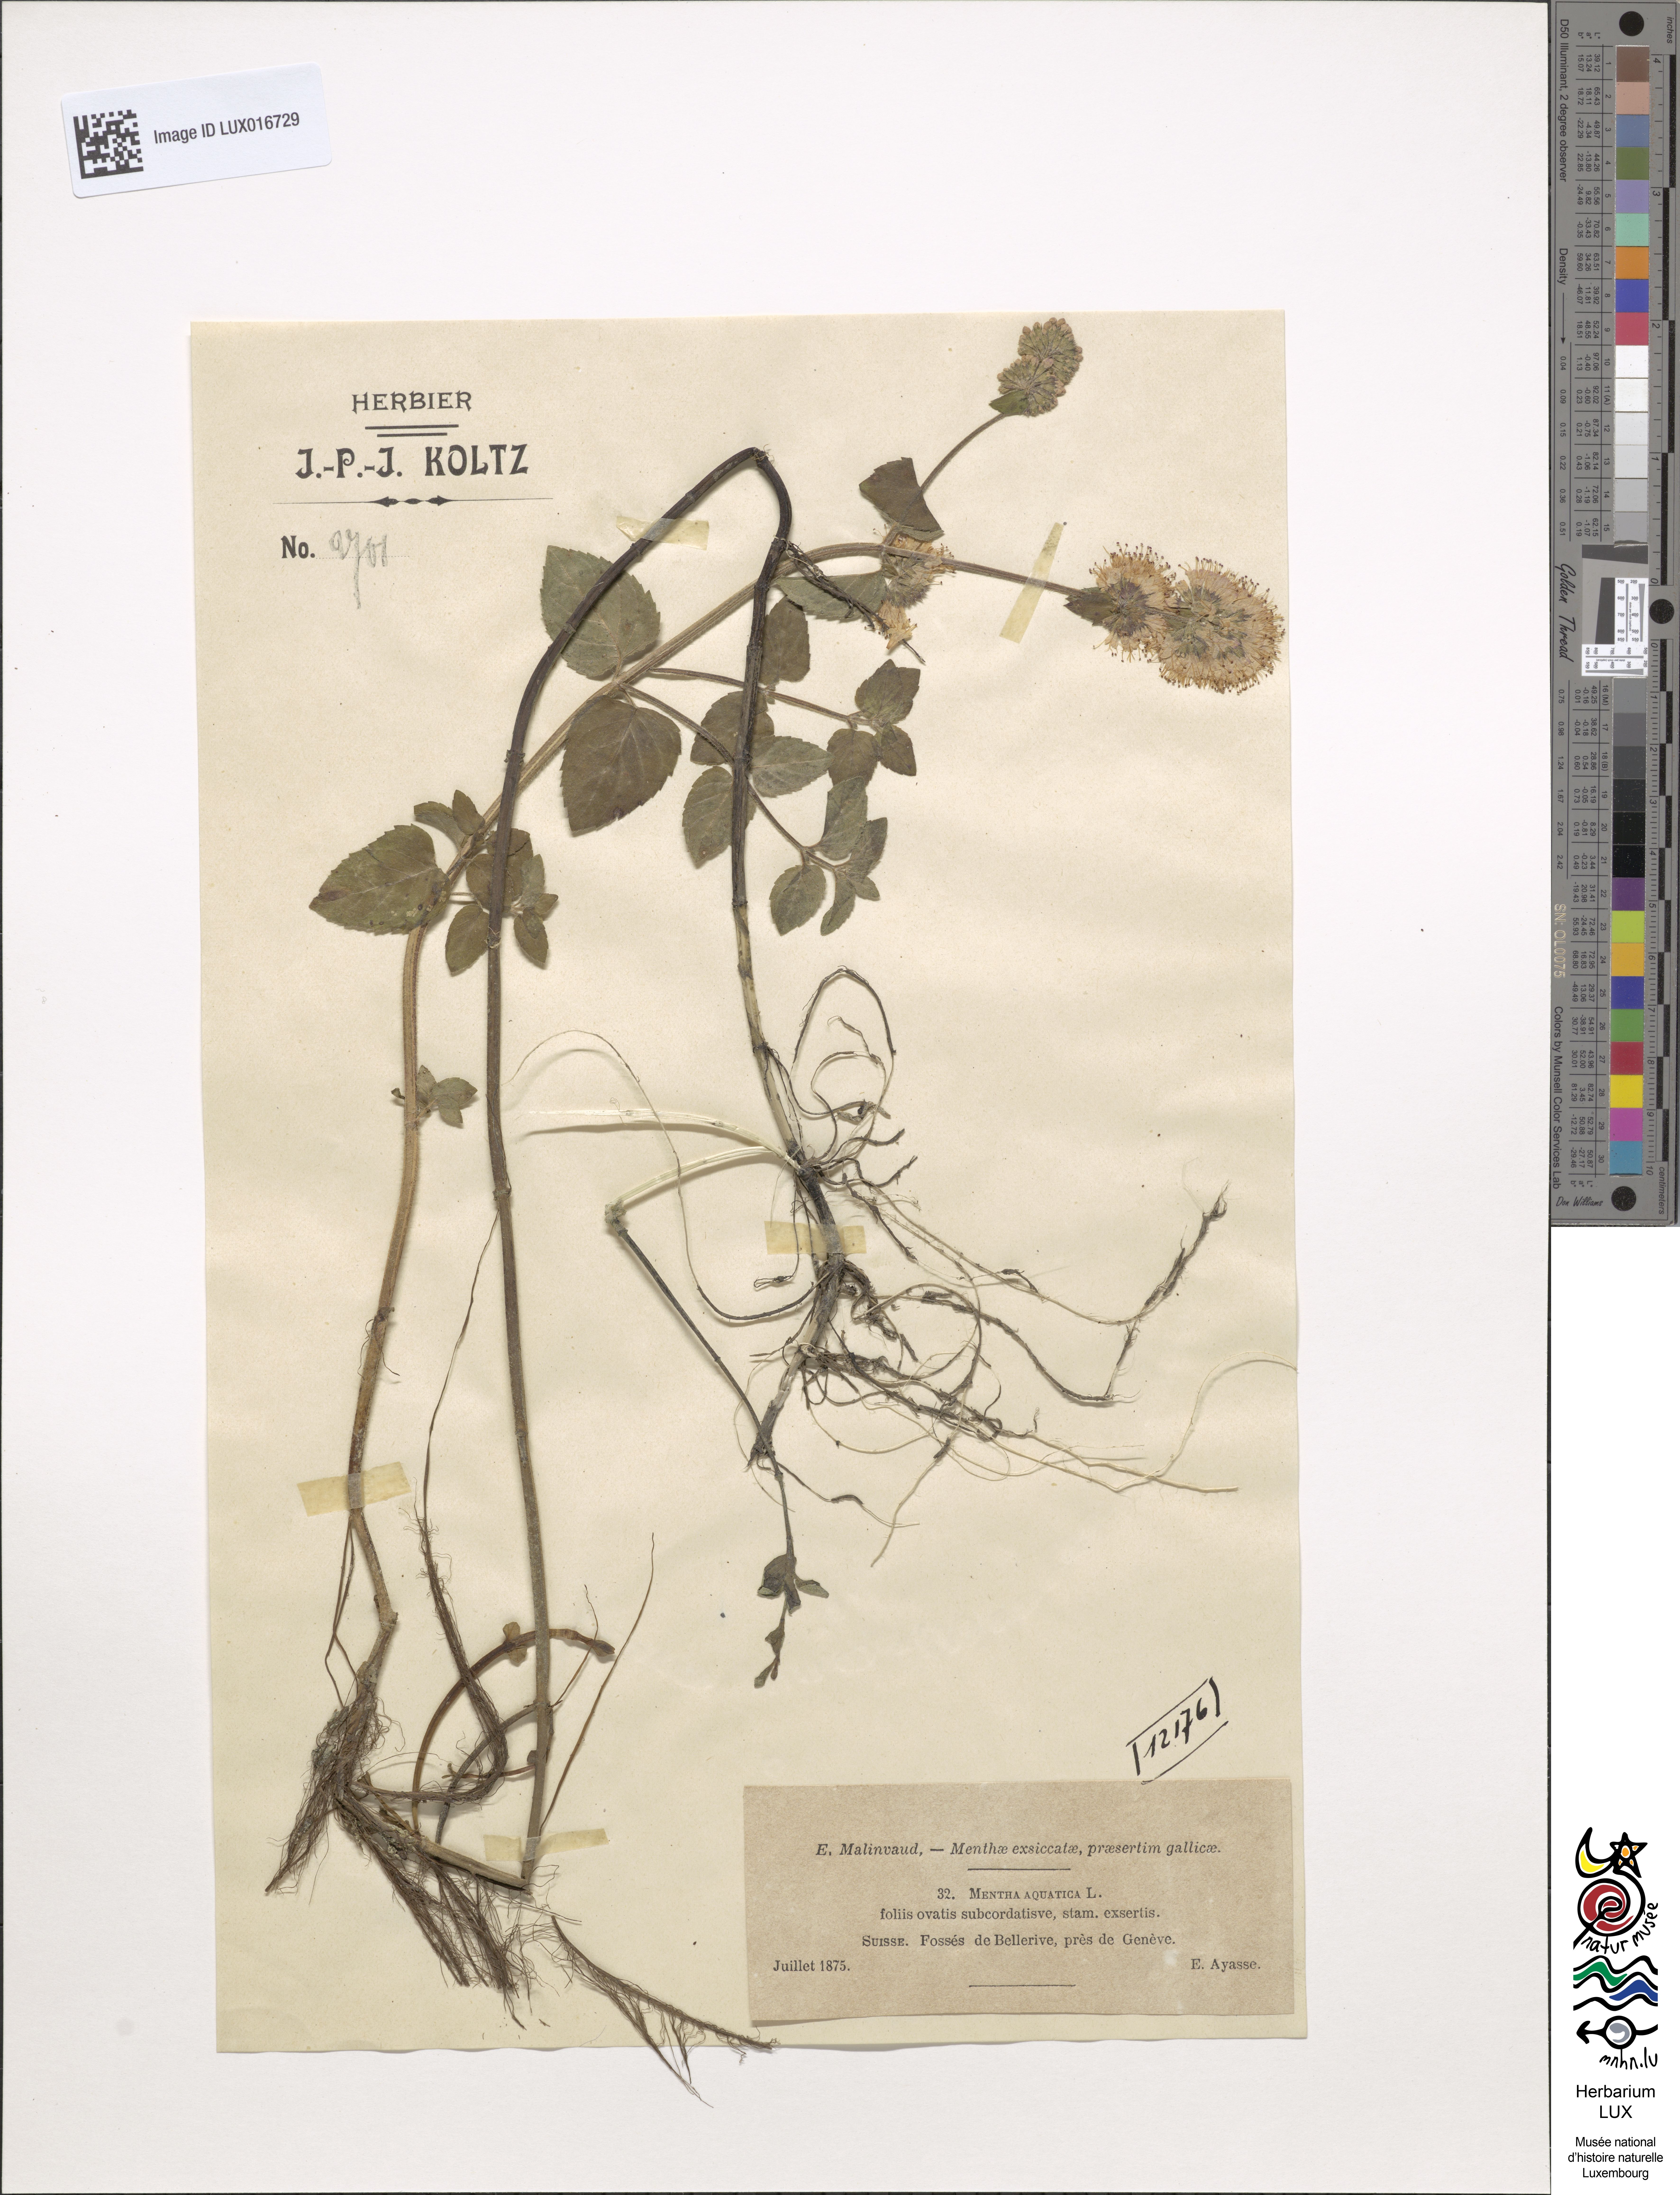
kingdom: Plantae
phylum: Tracheophyta
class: Magnoliopsida
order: Lamiales
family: Lamiaceae
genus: Mentha
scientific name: Mentha aquatica
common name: Water mint
